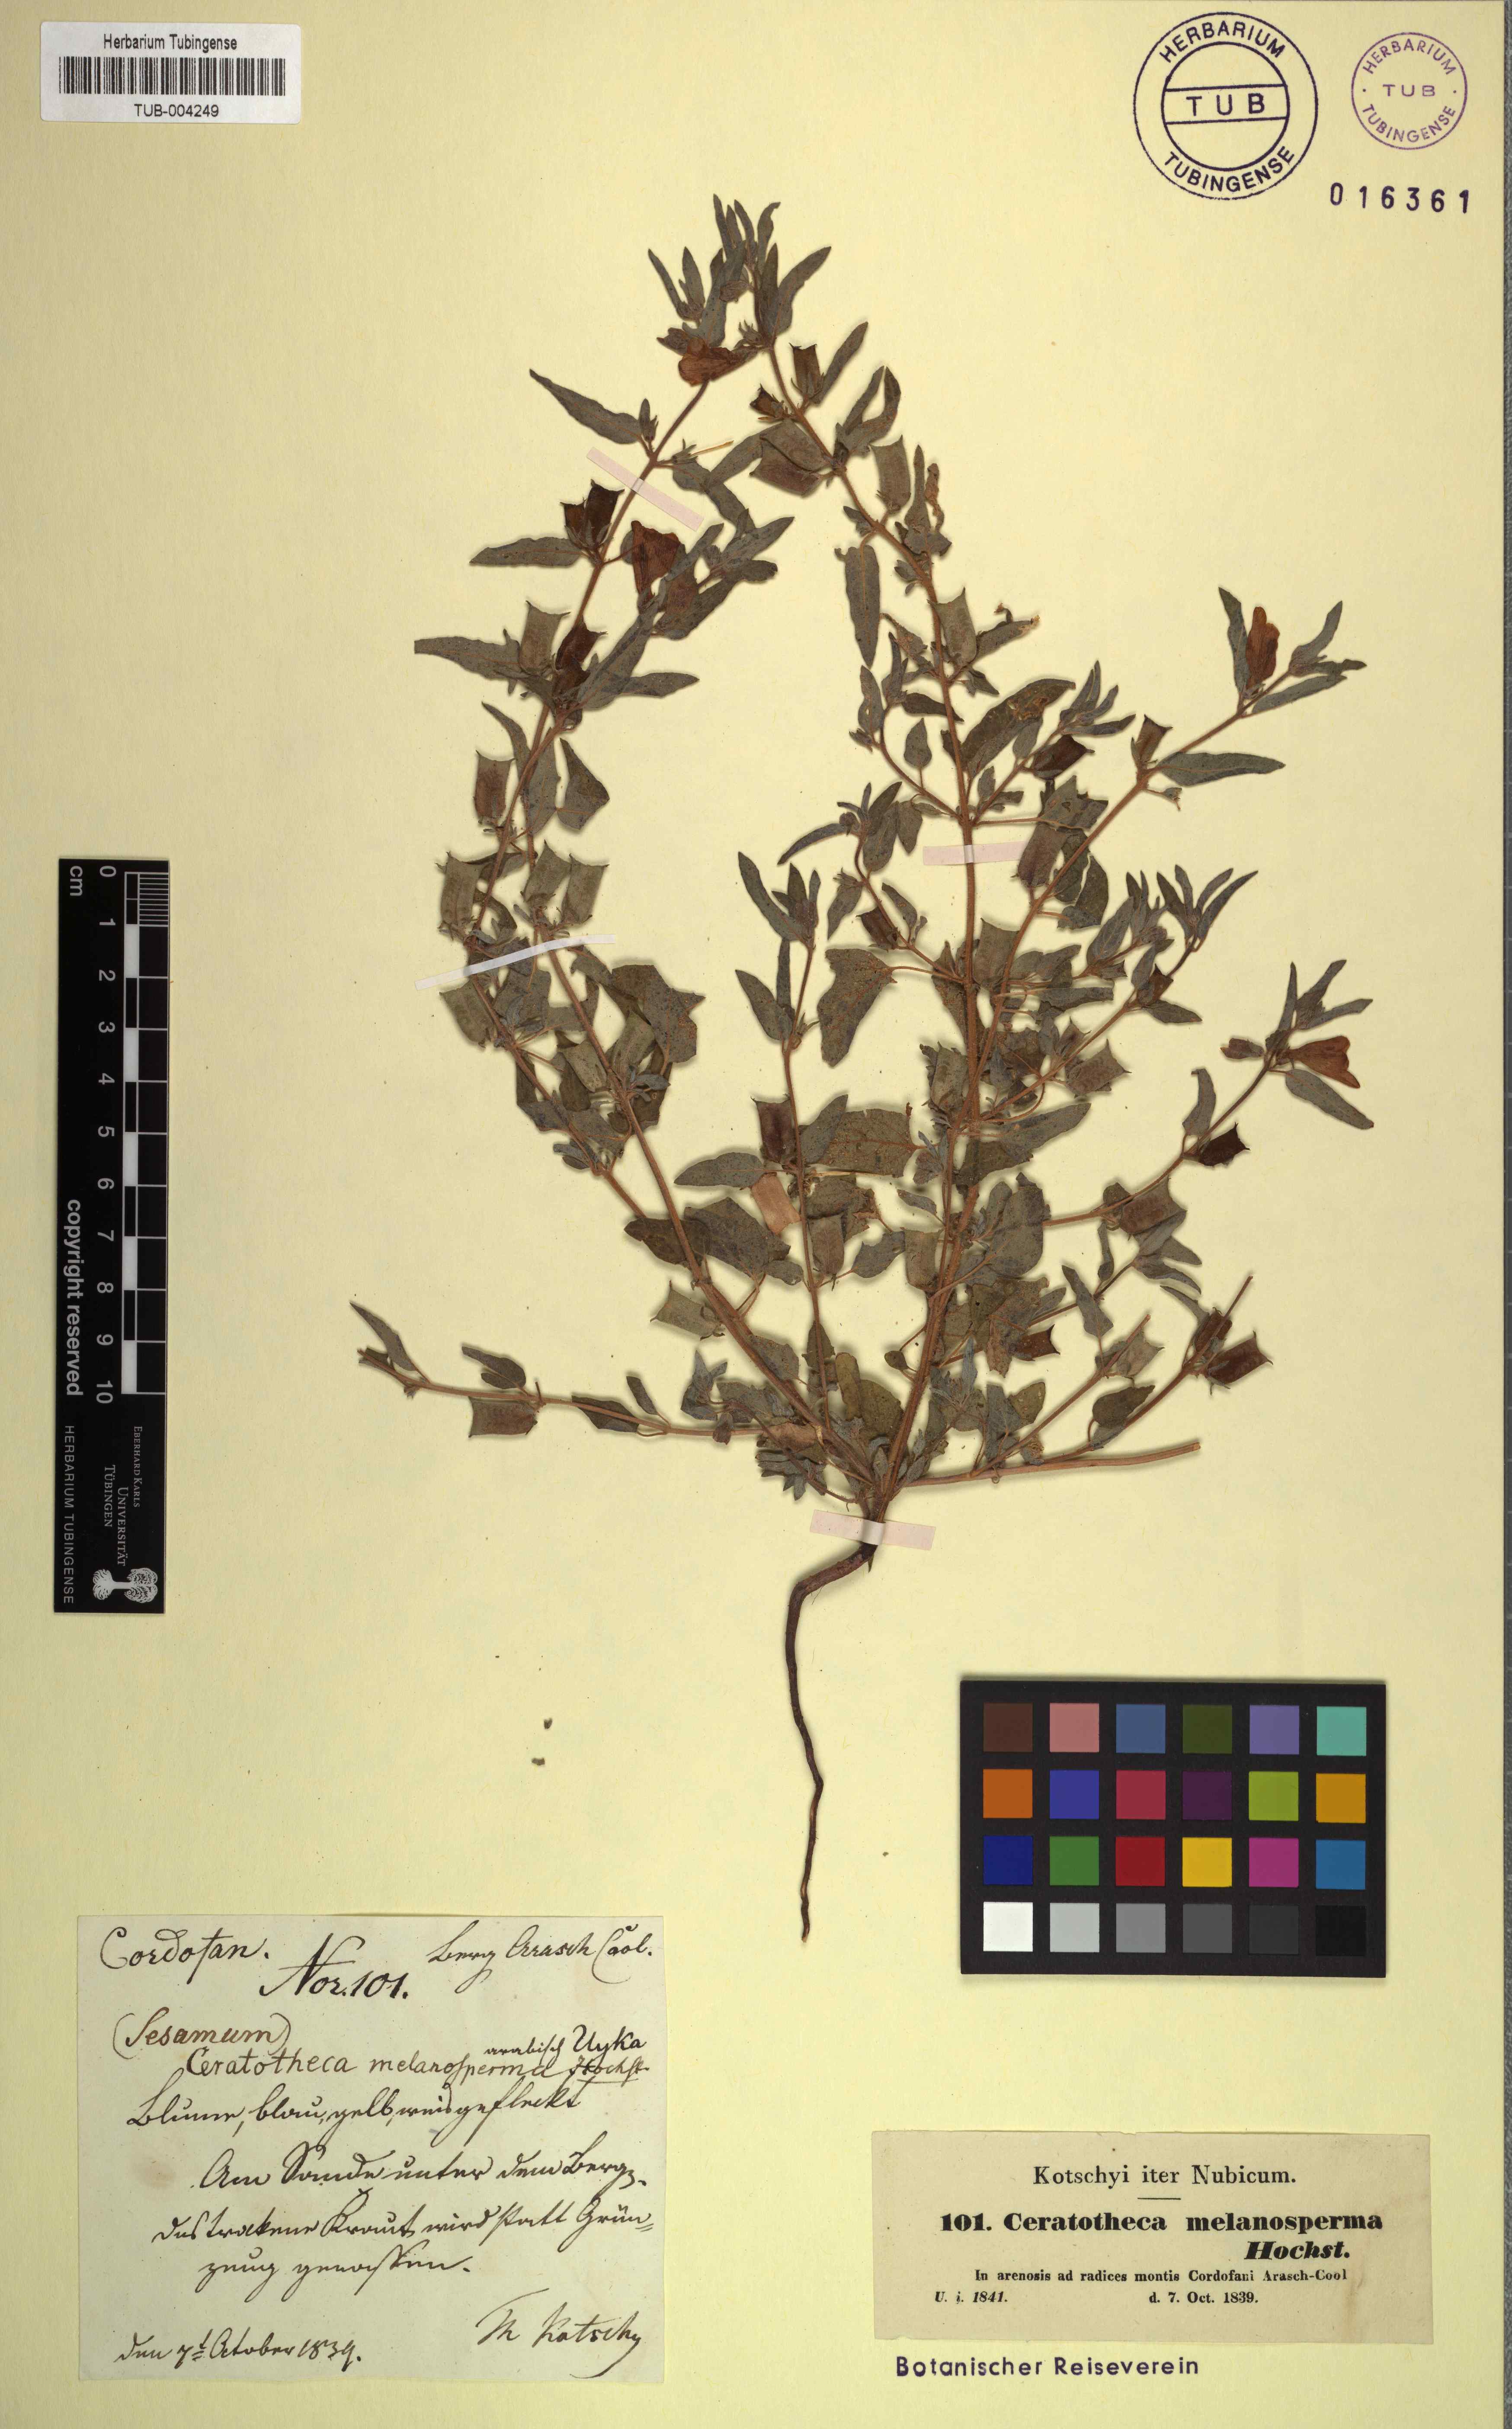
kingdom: Plantae
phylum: Tracheophyta
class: Magnoliopsida
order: Lamiales
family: Pedaliaceae
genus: Sesamum
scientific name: Sesamum sesamoides
